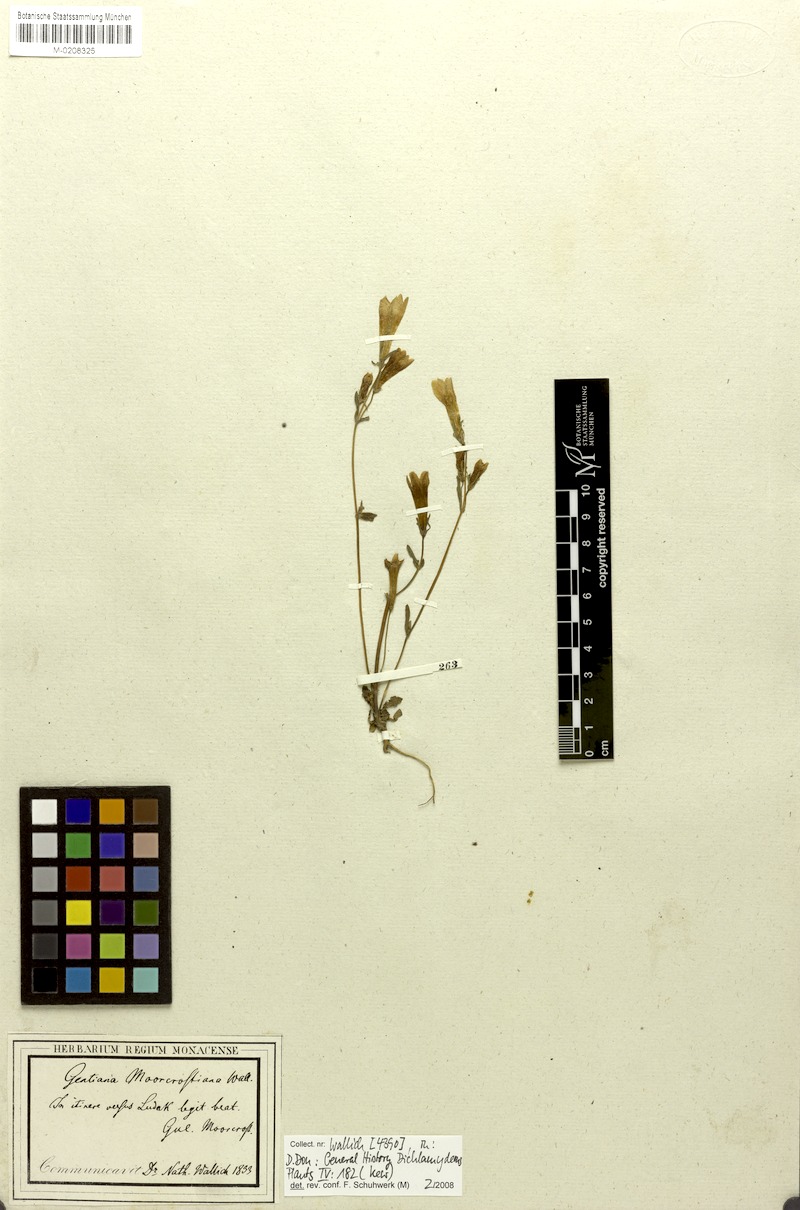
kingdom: Plantae
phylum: Tracheophyta
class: Magnoliopsida
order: Gentianales
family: Gentianaceae
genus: Gentianella
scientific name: Gentianella moorcroftiana
